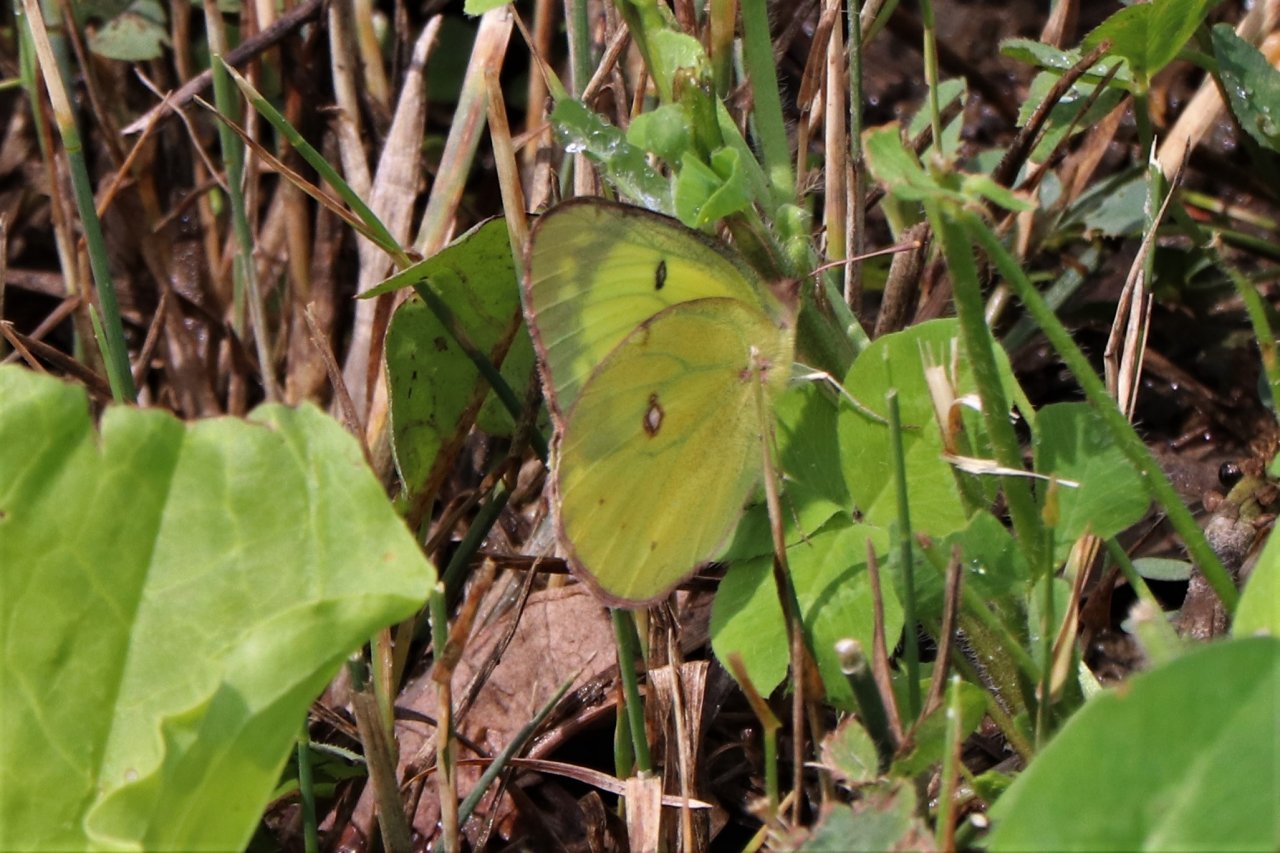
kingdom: Animalia
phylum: Arthropoda
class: Insecta
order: Lepidoptera
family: Pieridae
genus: Colias
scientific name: Colias
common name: Clouded Yellows
